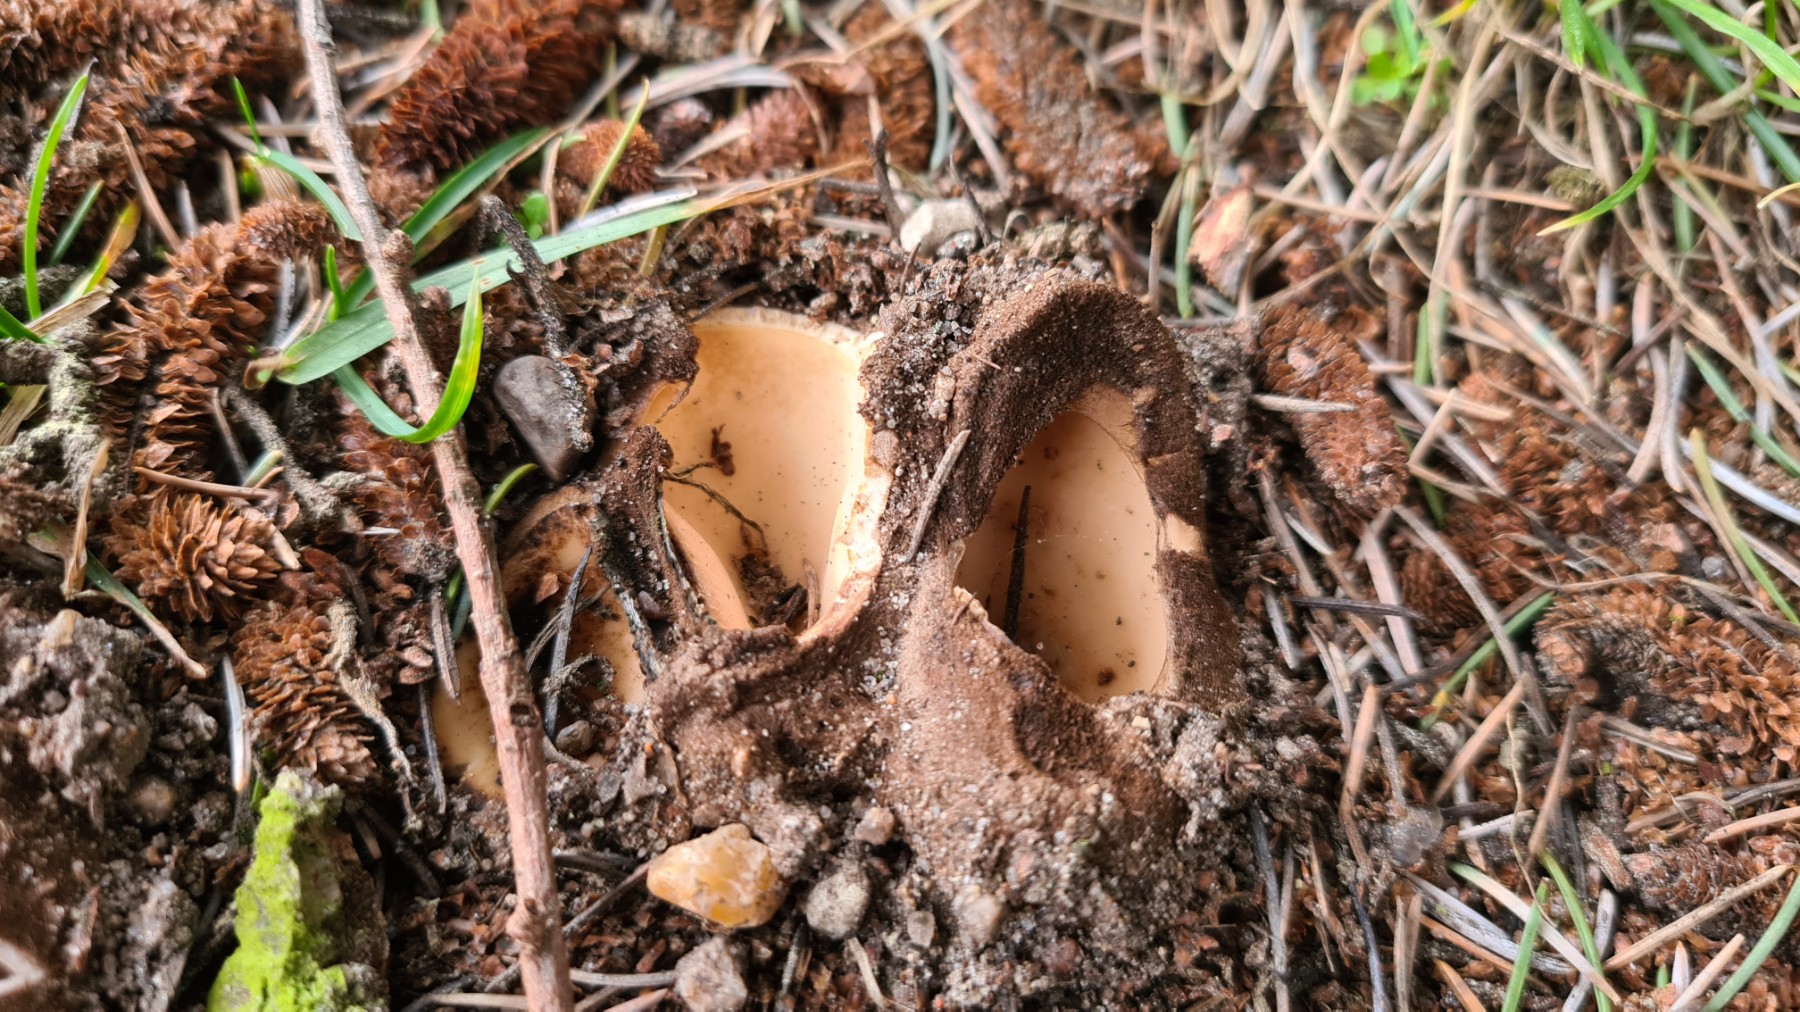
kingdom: Fungi
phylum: Ascomycota
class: Pezizomycetes
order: Pezizales
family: Pyronemataceae
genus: Geopora
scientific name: Geopora sumneriana
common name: vår-jordbæger
